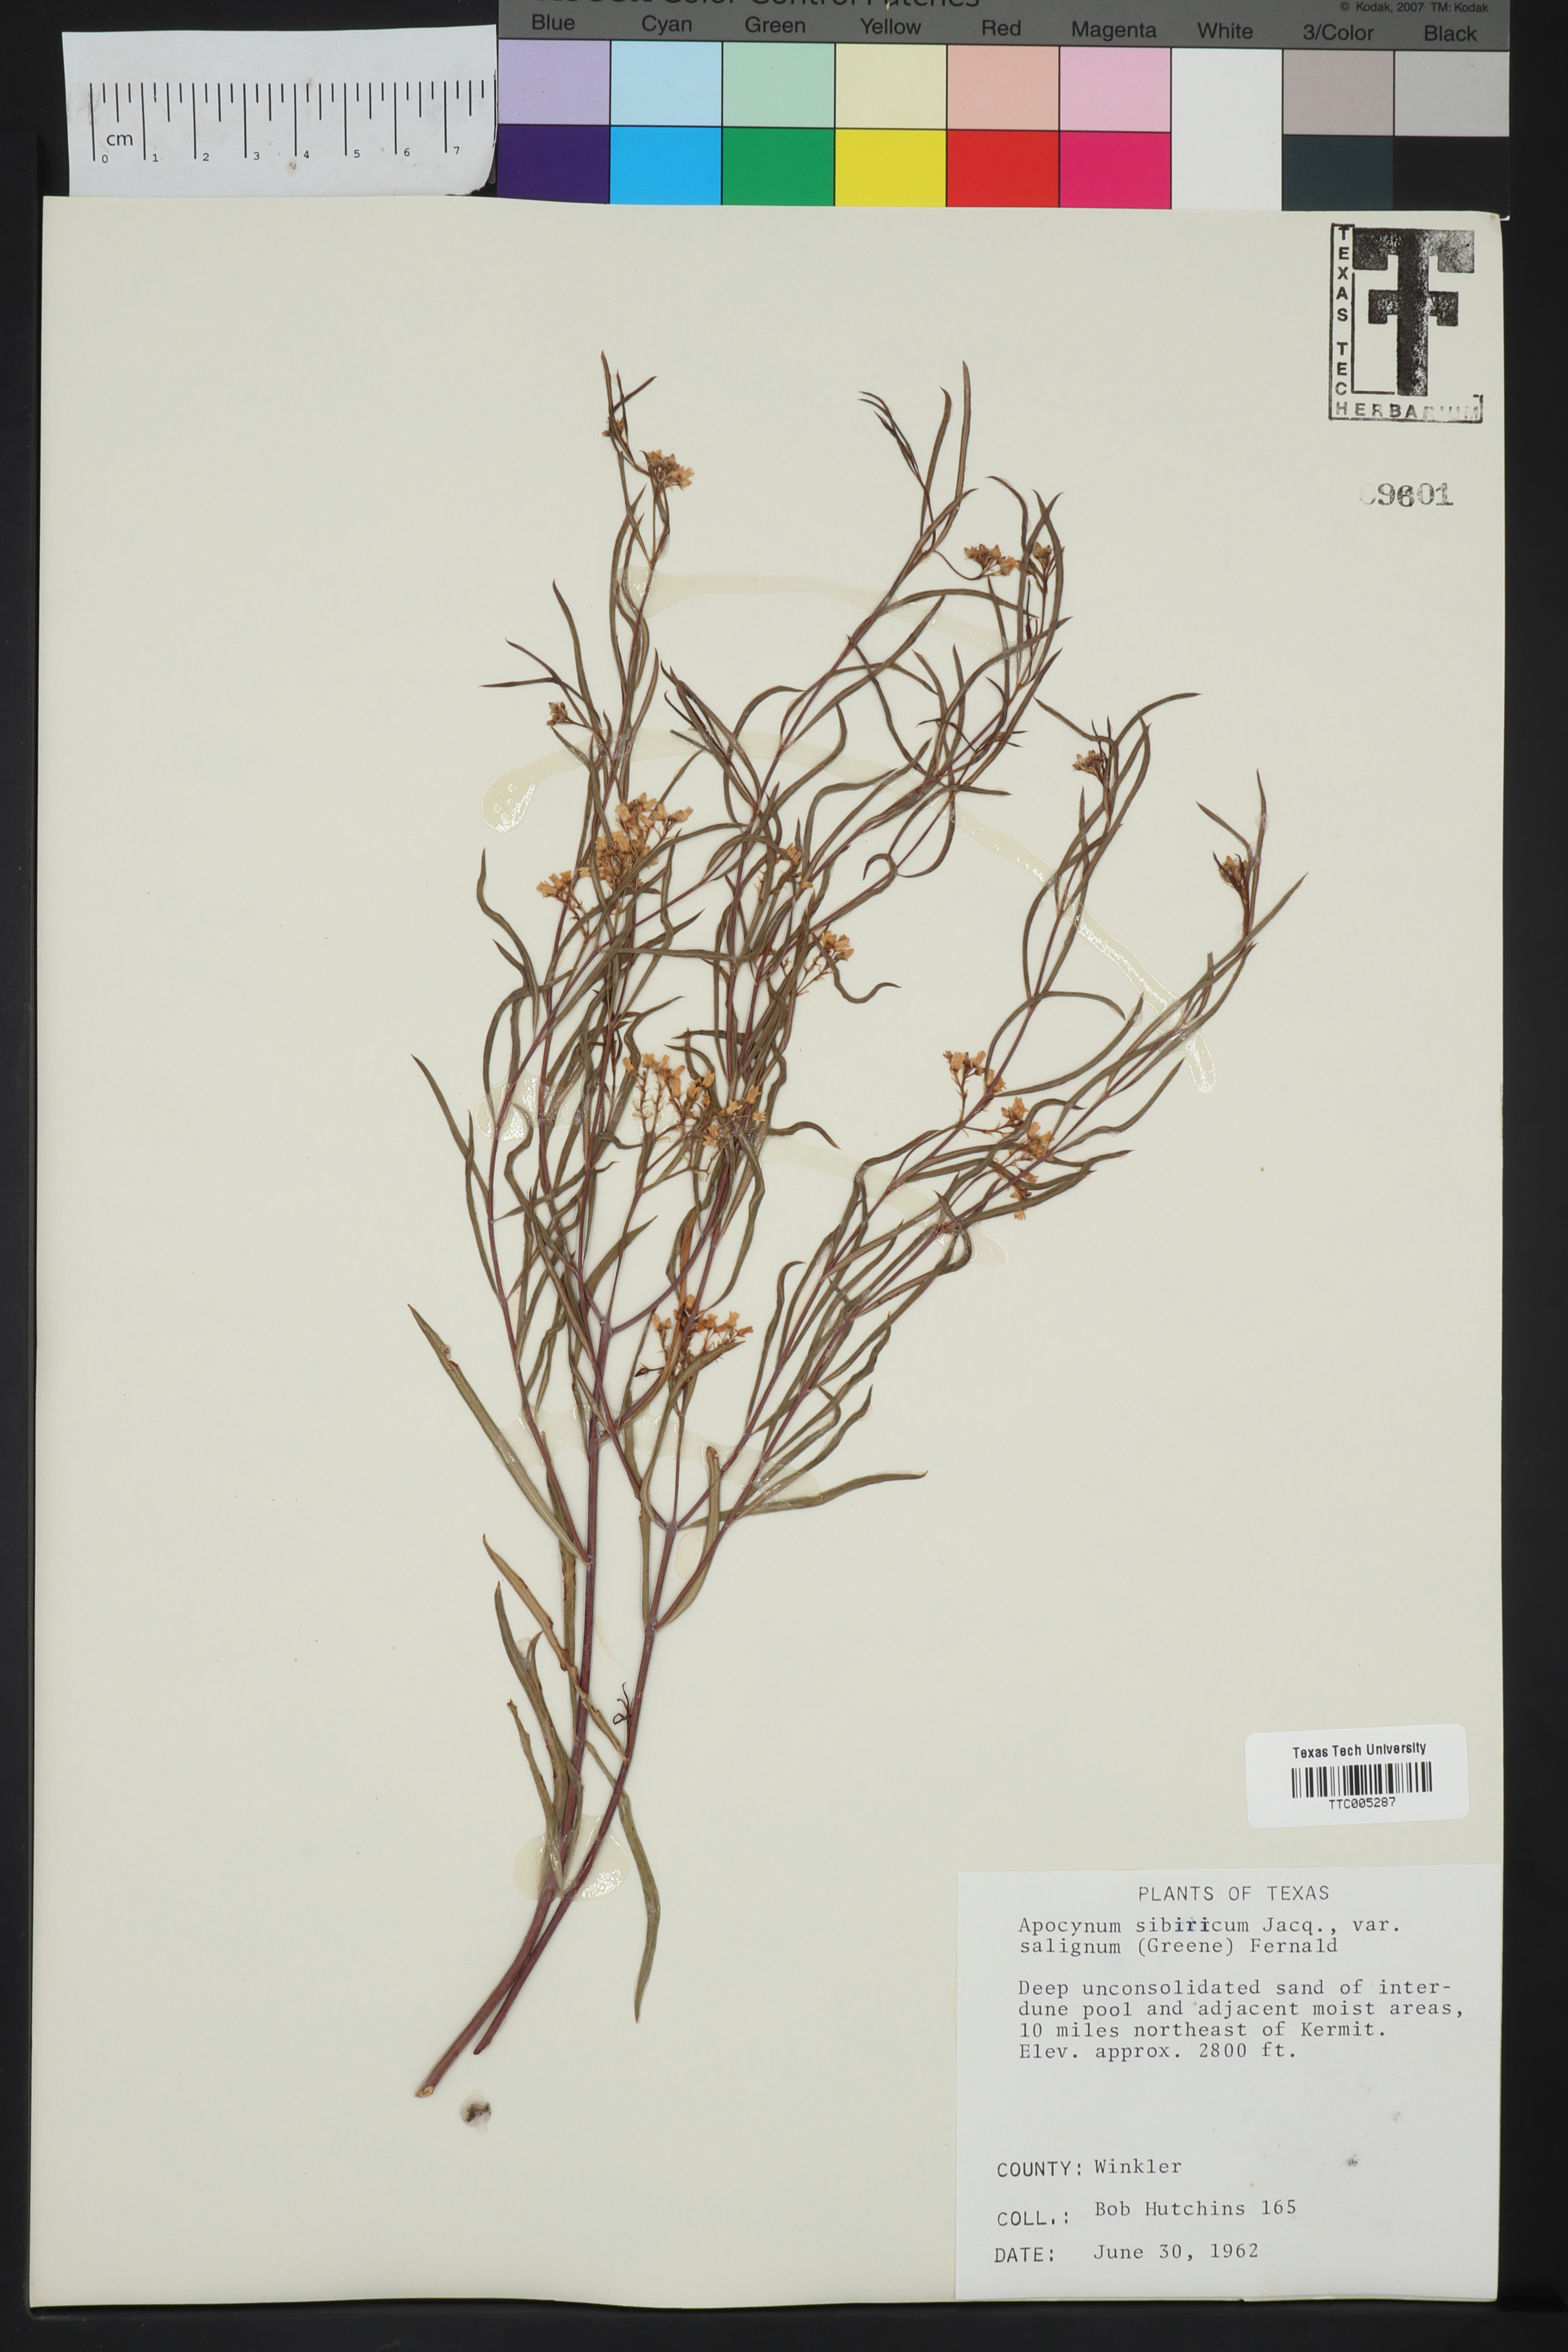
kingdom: Plantae
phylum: Tracheophyta
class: Magnoliopsida
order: Gentianales
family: Apocynaceae
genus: Apocynum
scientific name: Apocynum cannabinum
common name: Hemp dogbane
